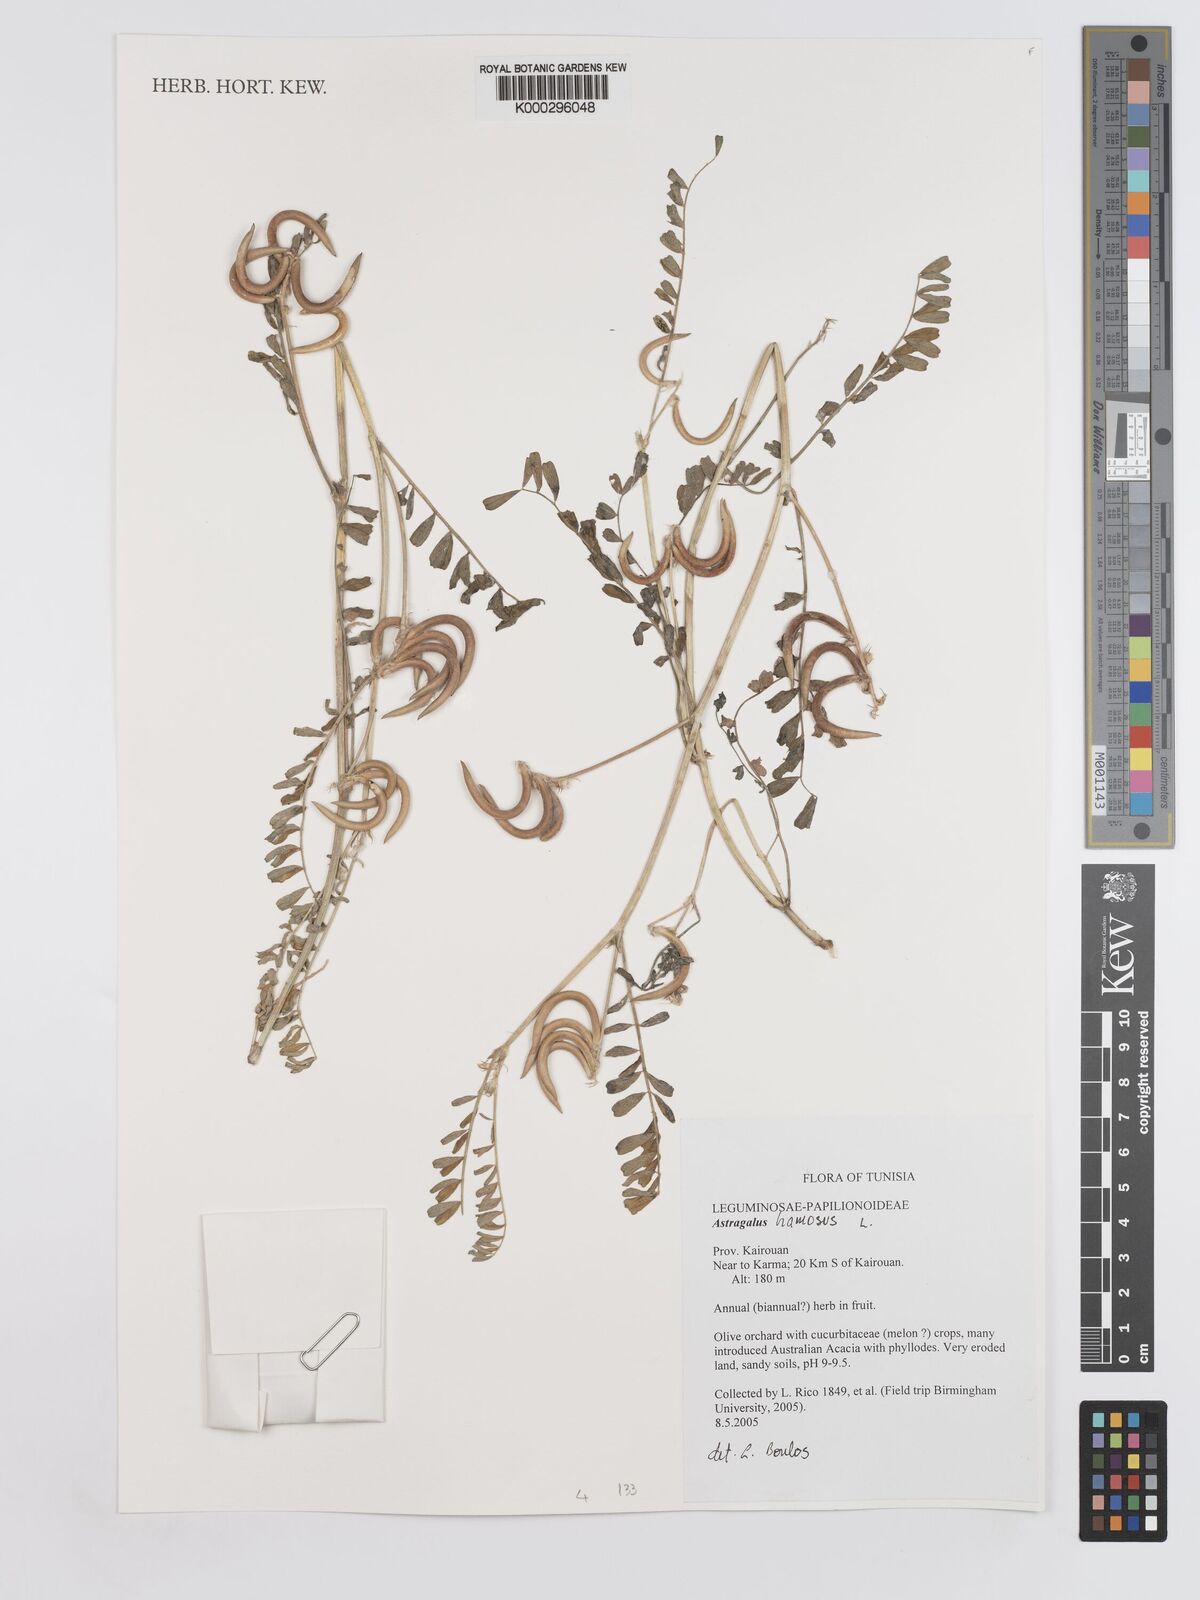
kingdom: Plantae
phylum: Tracheophyta
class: Magnoliopsida
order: Fabales
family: Fabaceae
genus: Astragalus
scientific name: Astragalus hamosus
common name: European milkvetch
